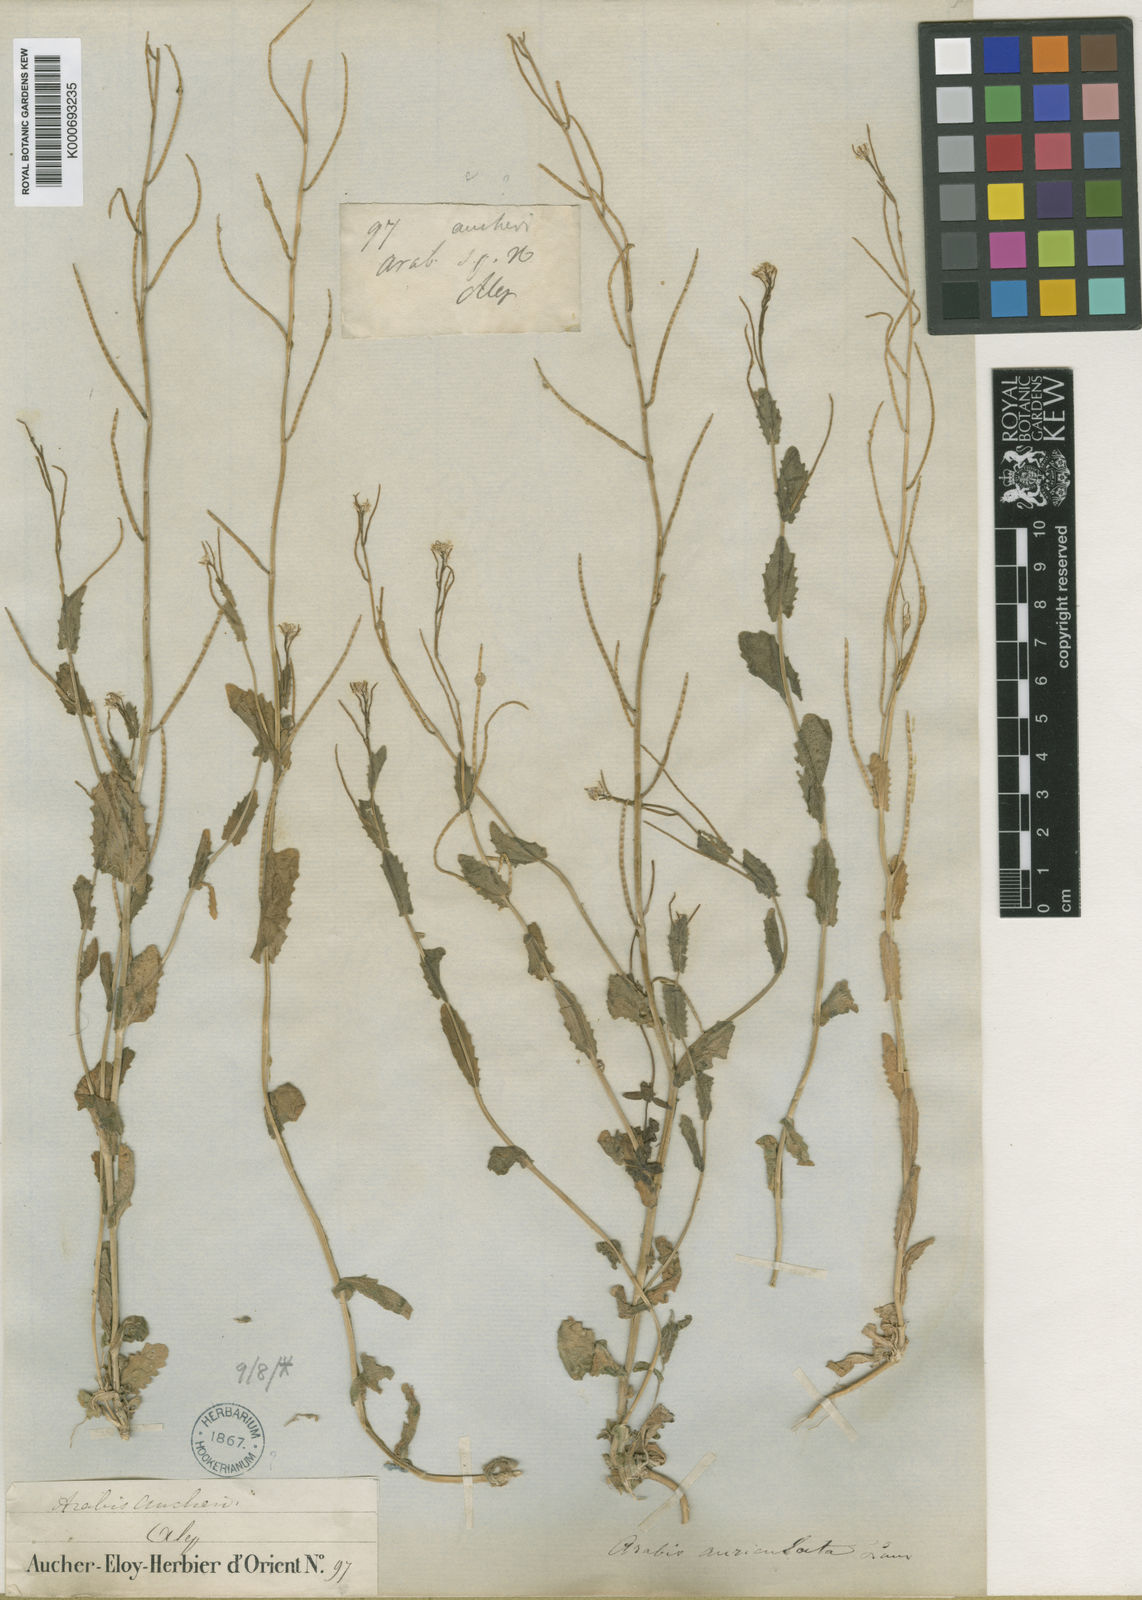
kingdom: Plantae
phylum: Tracheophyta
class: Magnoliopsida
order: Brassicales
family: Brassicaceae
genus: Arabis
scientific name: Arabis aucheri
